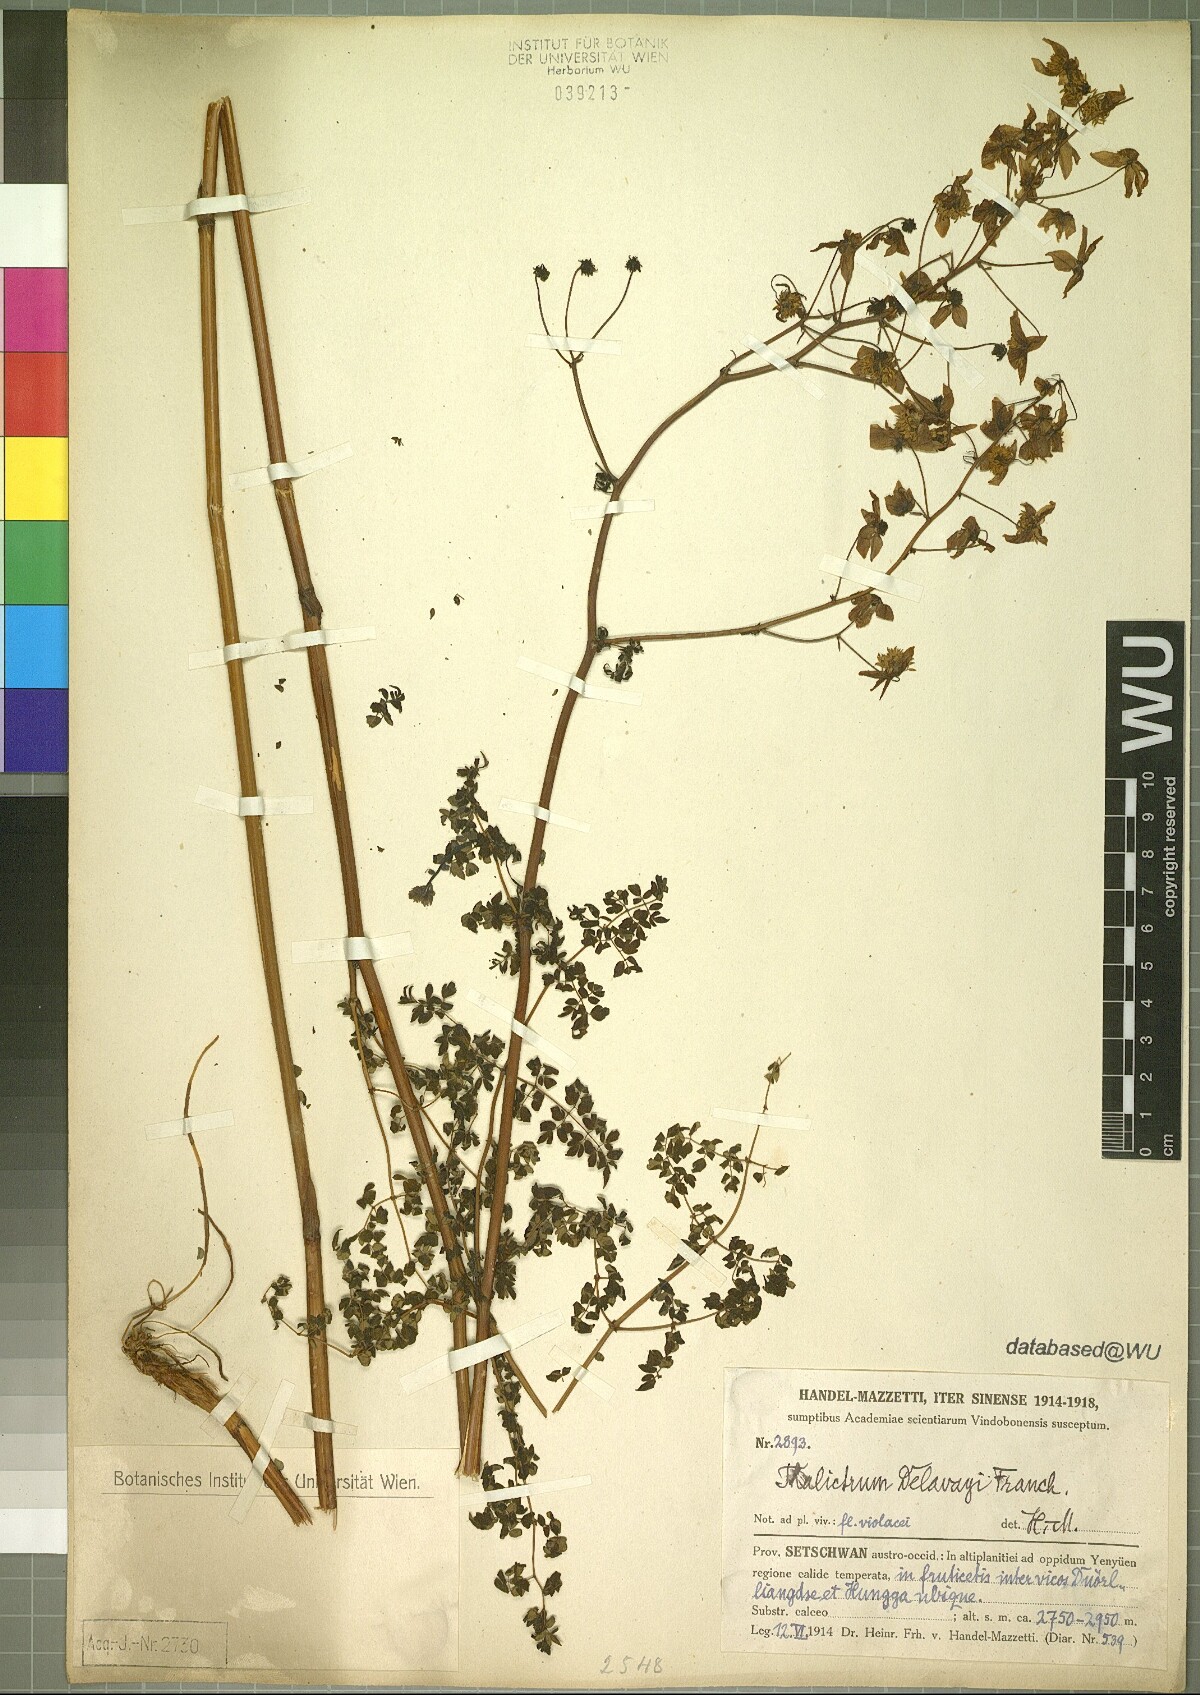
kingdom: Plantae
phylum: Tracheophyta
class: Magnoliopsida
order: Ranunculales
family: Ranunculaceae
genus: Thalictrum
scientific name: Thalictrum delavayi
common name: Chinese meadow-rue
